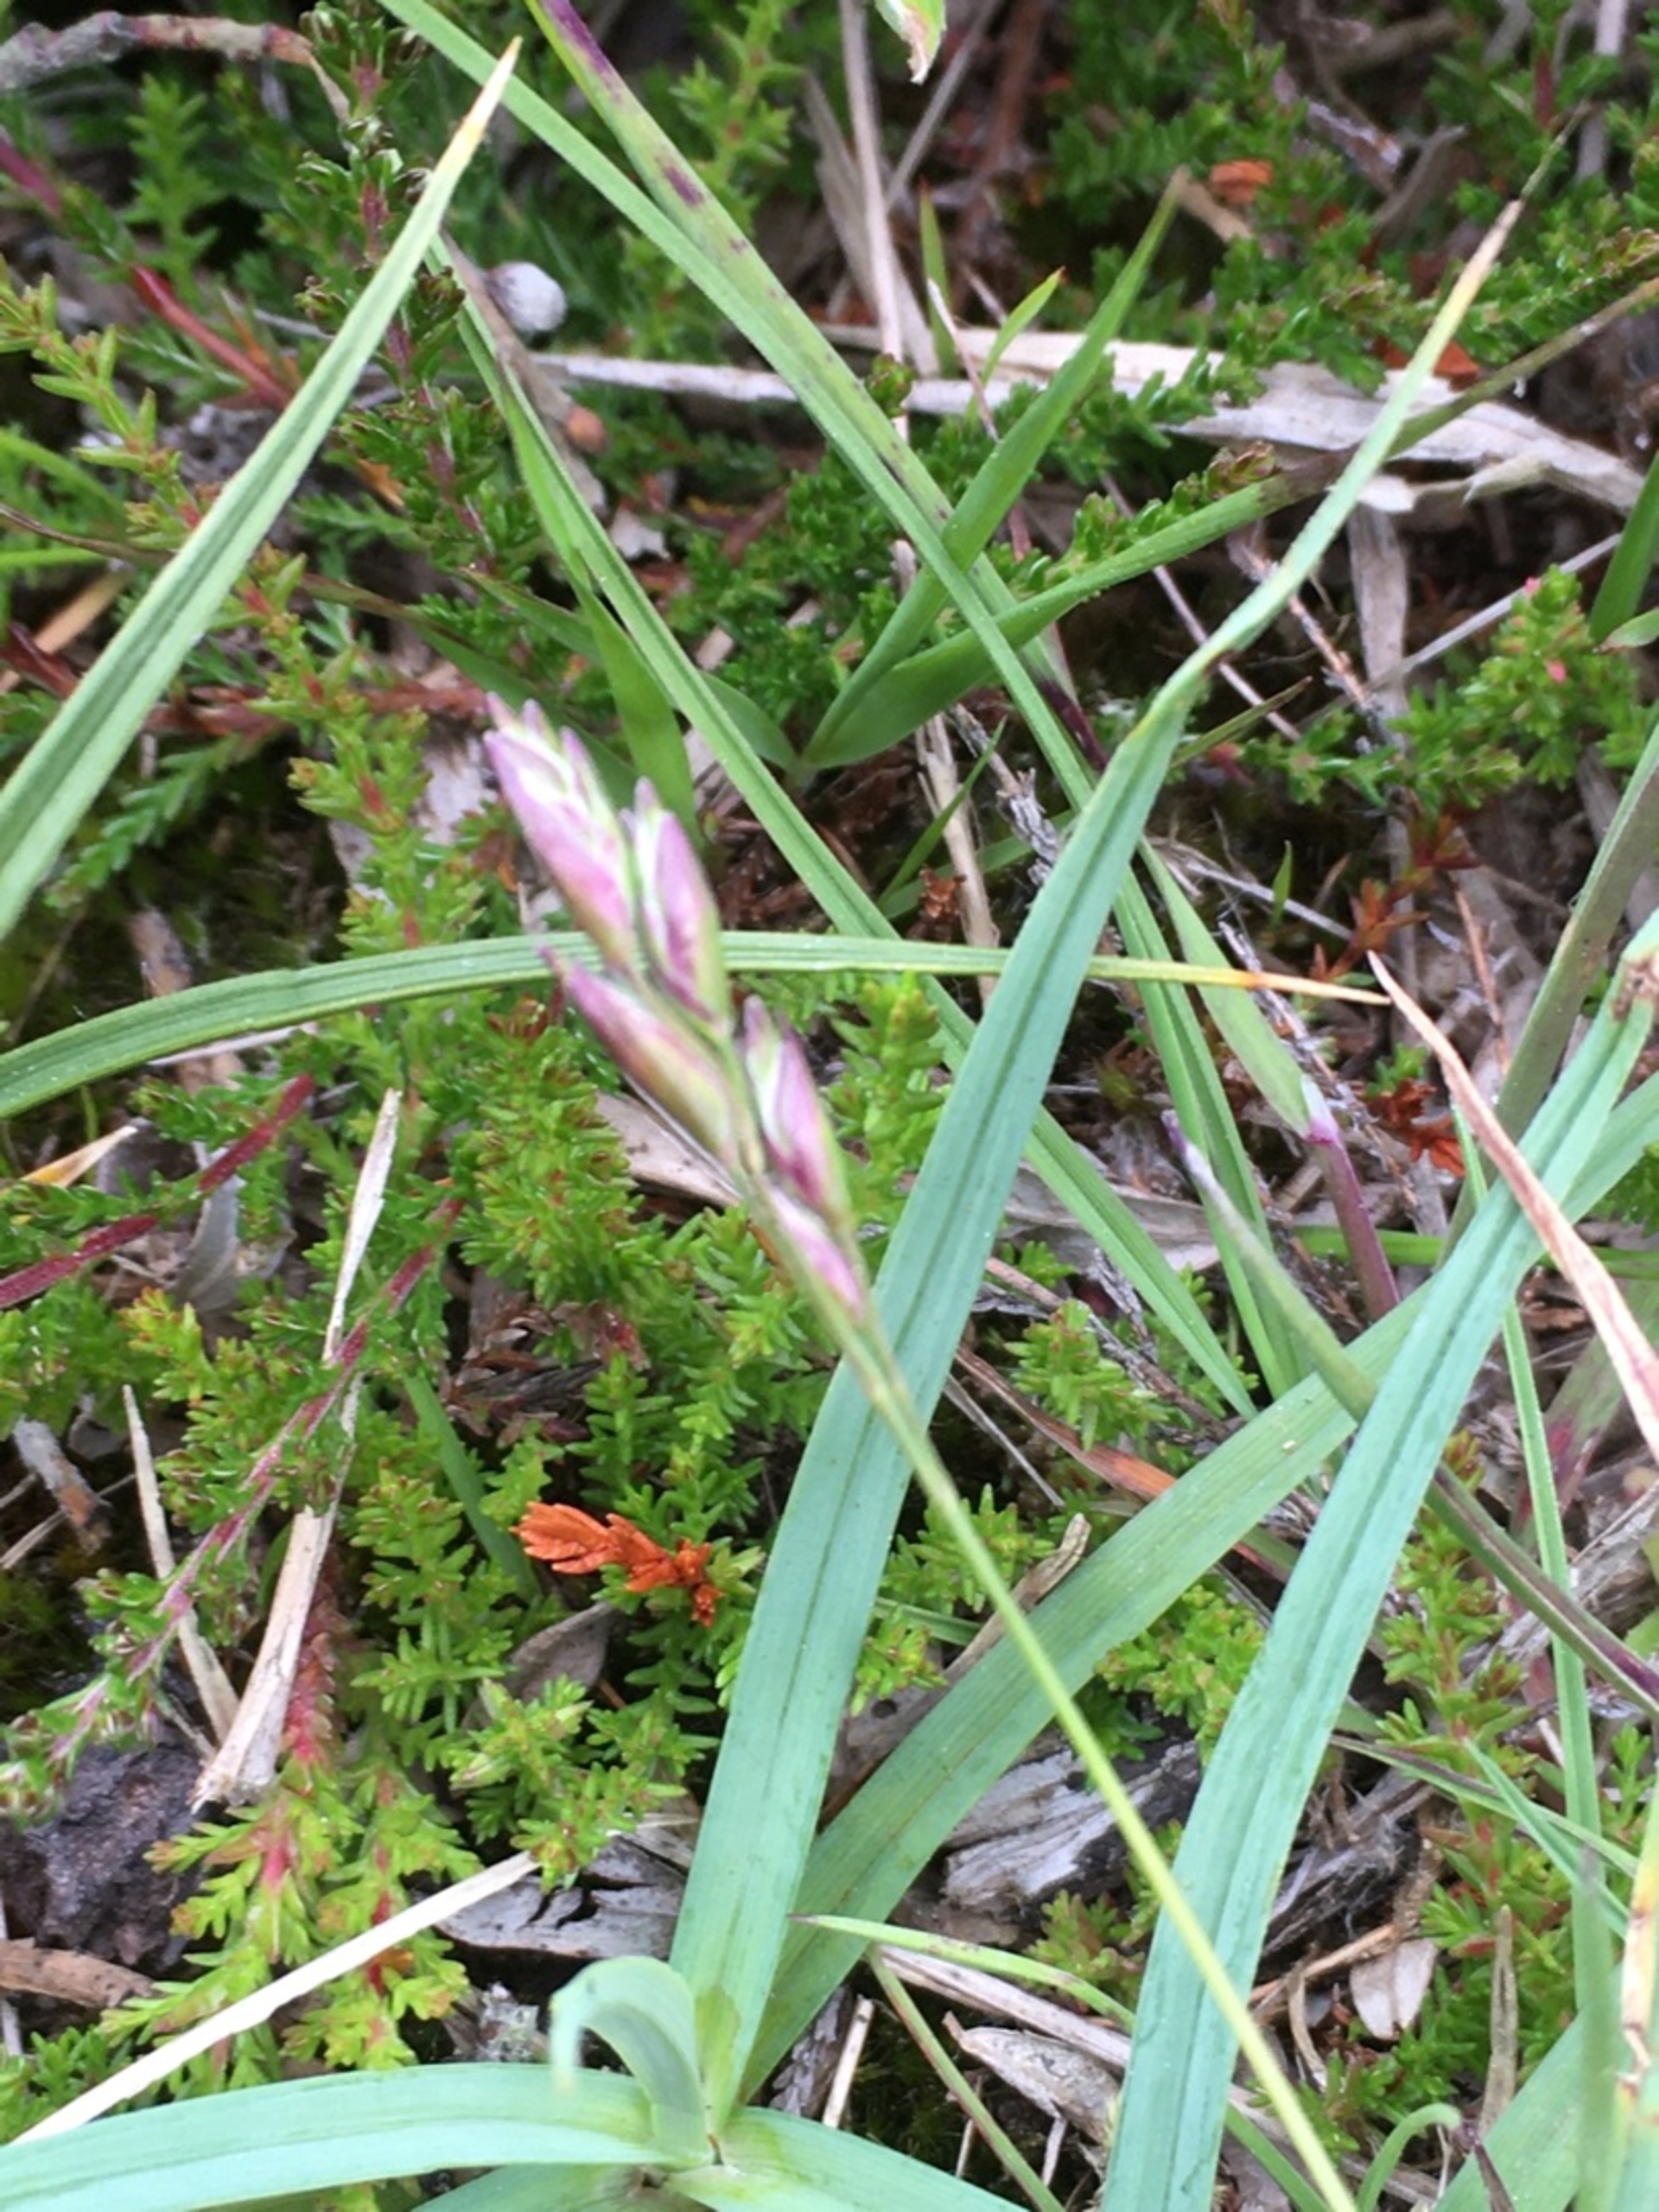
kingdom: Plantae
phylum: Tracheophyta
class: Liliopsida
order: Poales
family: Poaceae
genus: Danthonia
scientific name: Danthonia decumbens
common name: Tandbælg
